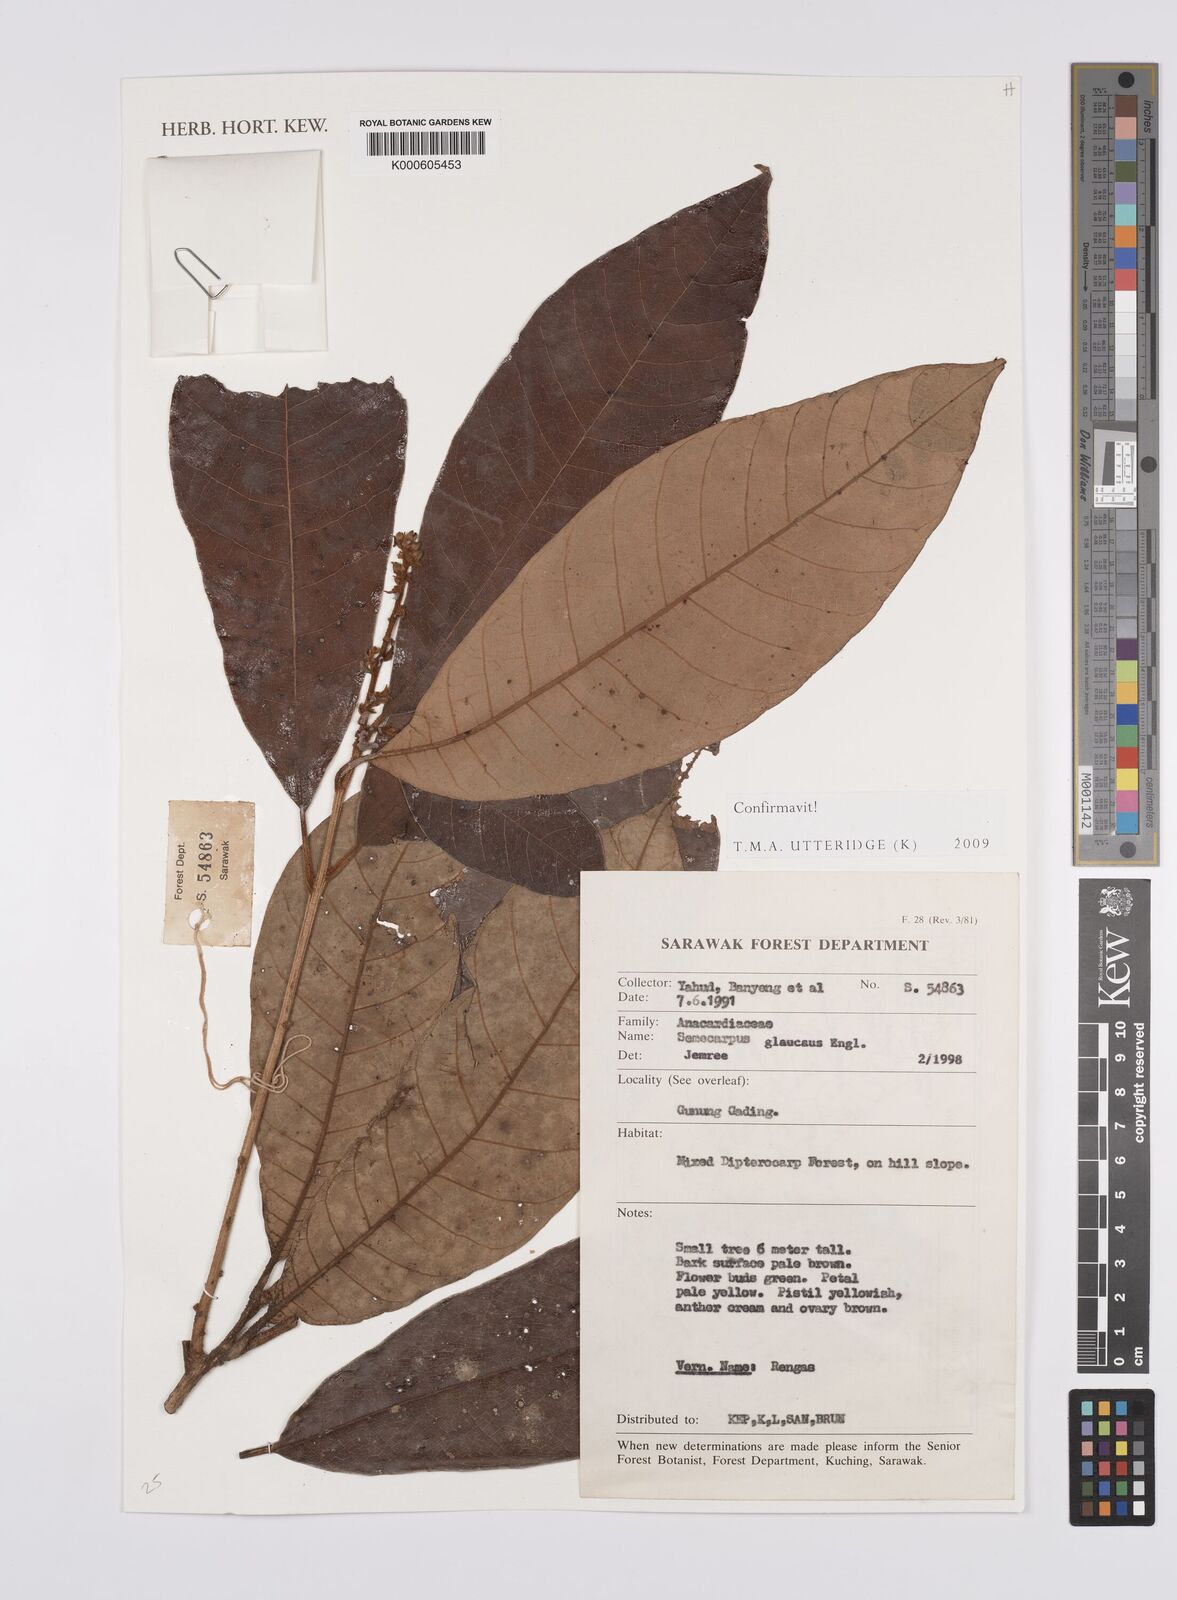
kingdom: Plantae
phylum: Tracheophyta
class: Magnoliopsida
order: Sapindales
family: Anacardiaceae
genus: Semecarpus
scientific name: Semecarpus glaucus
